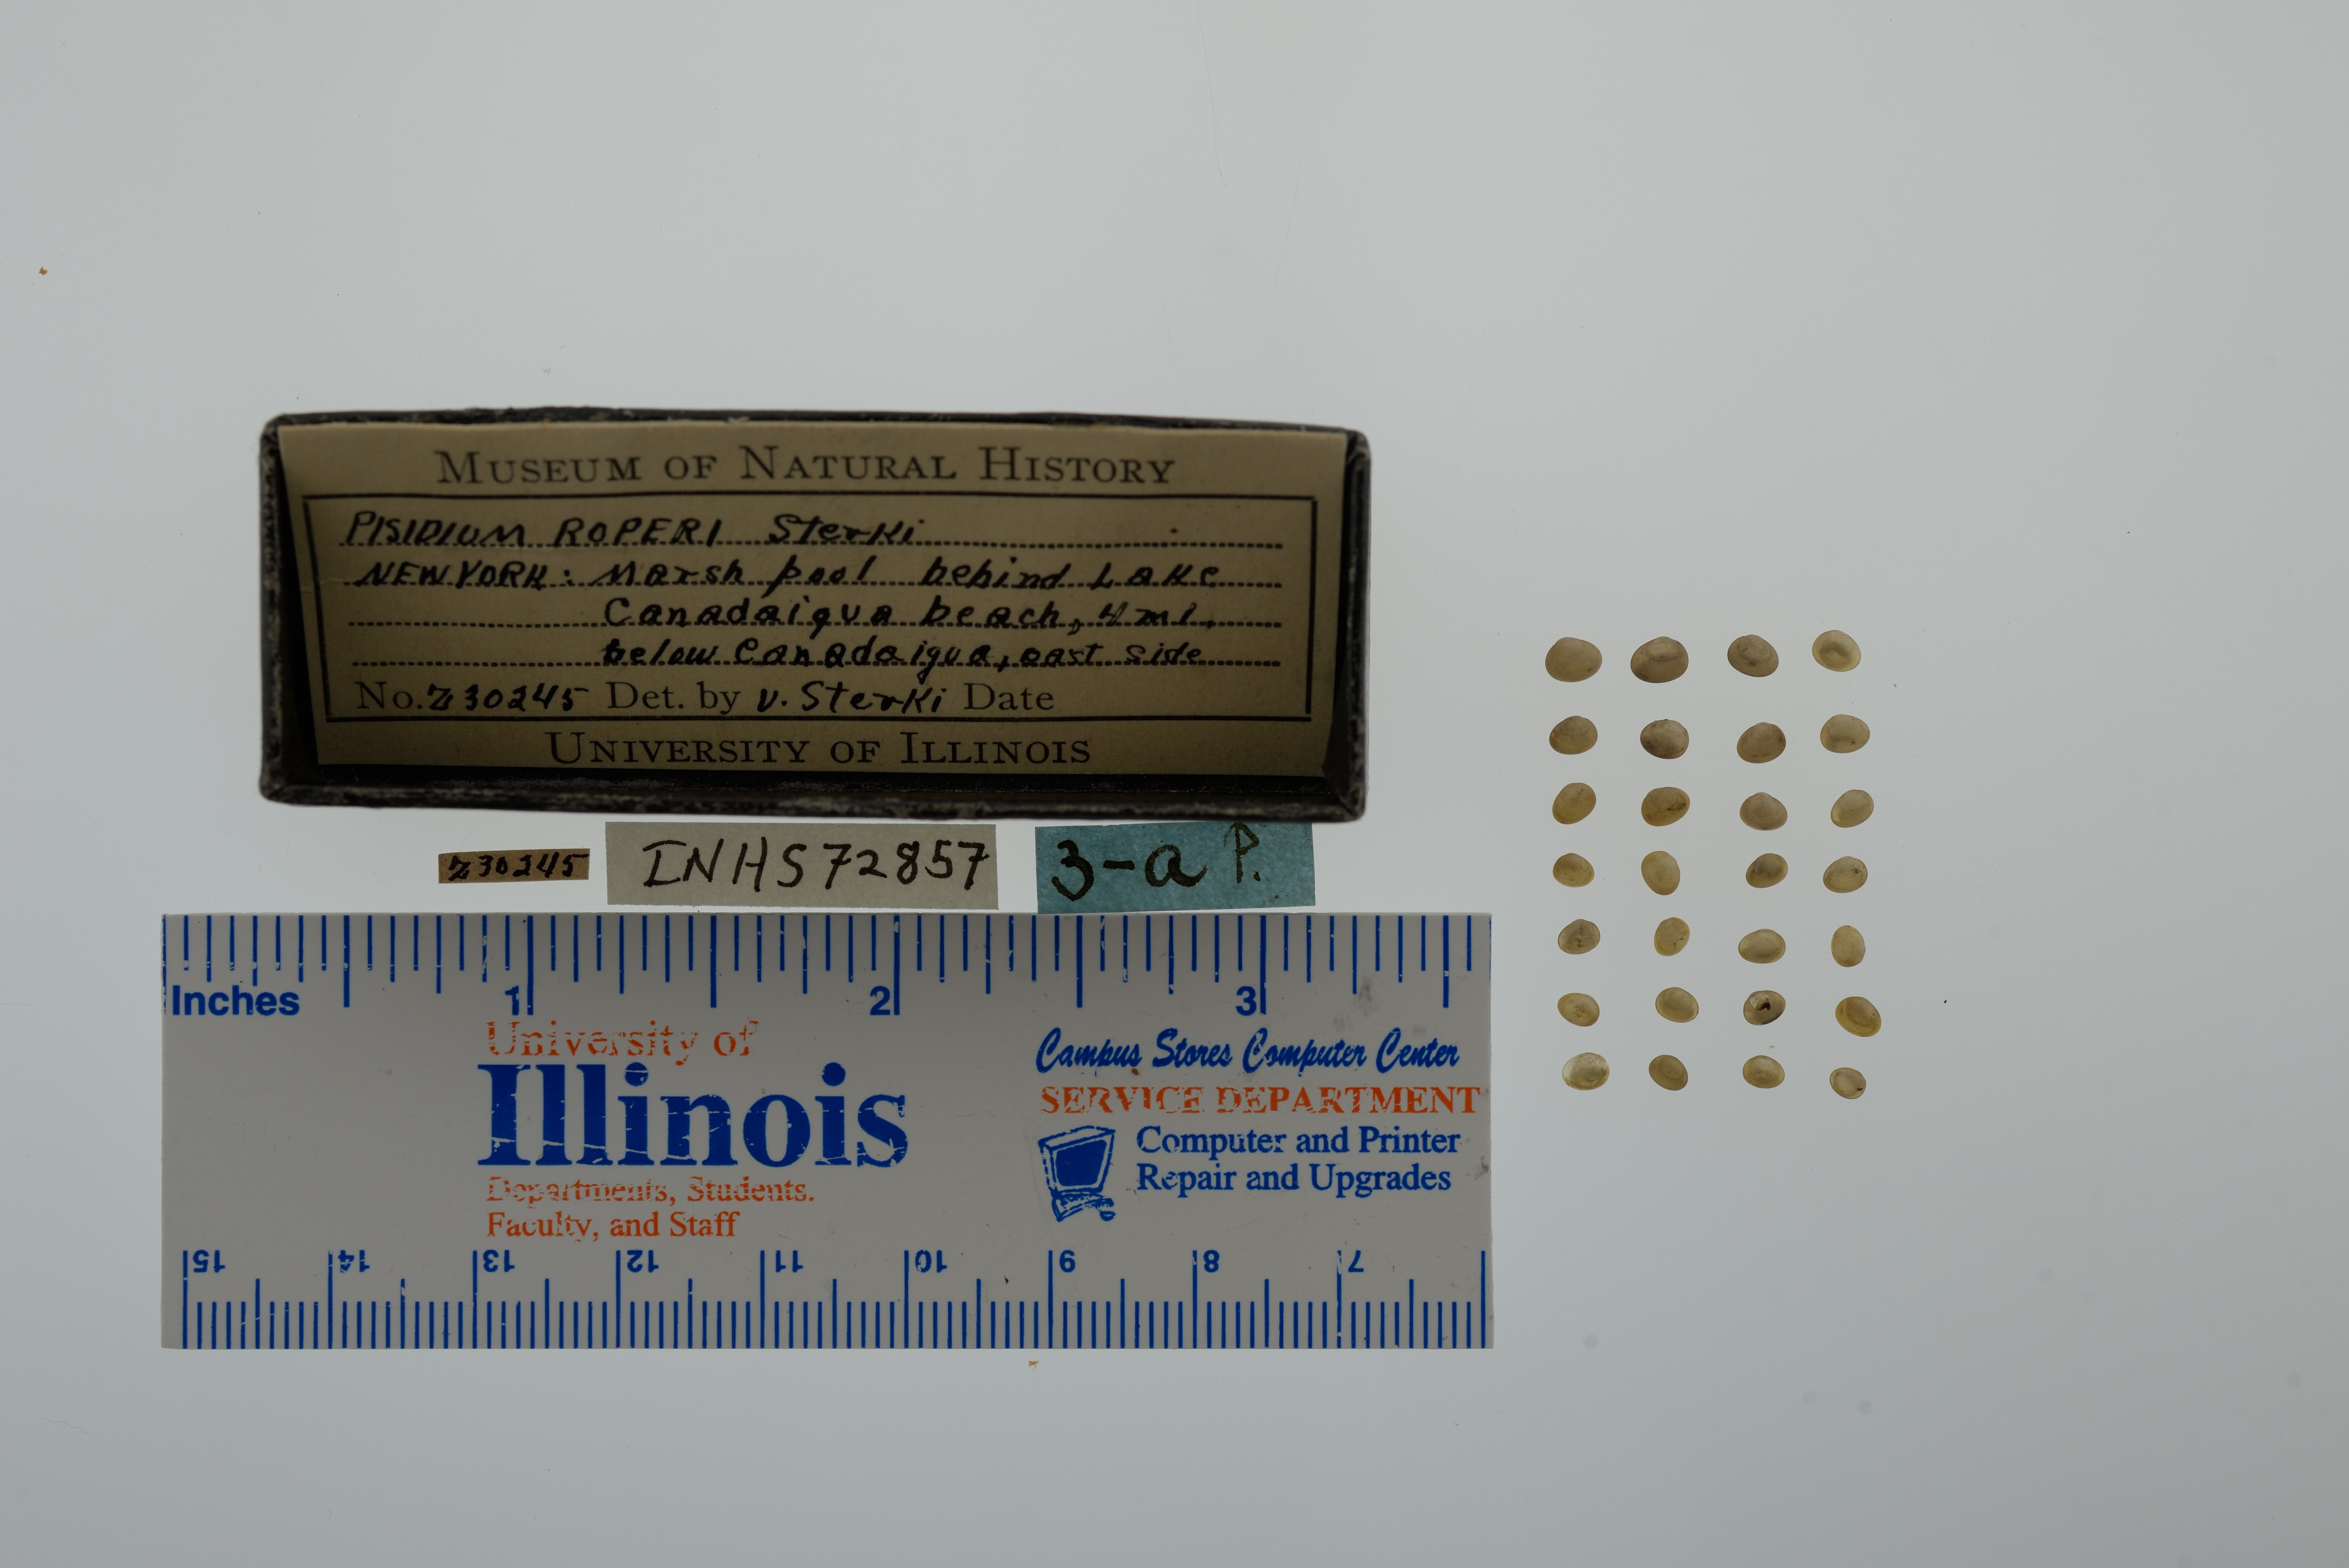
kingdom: Animalia
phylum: Mollusca
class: Bivalvia
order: Sphaeriida
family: Sphaeriidae
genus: Euglesa
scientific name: Euglesa casertana
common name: Caserta pea mussel
